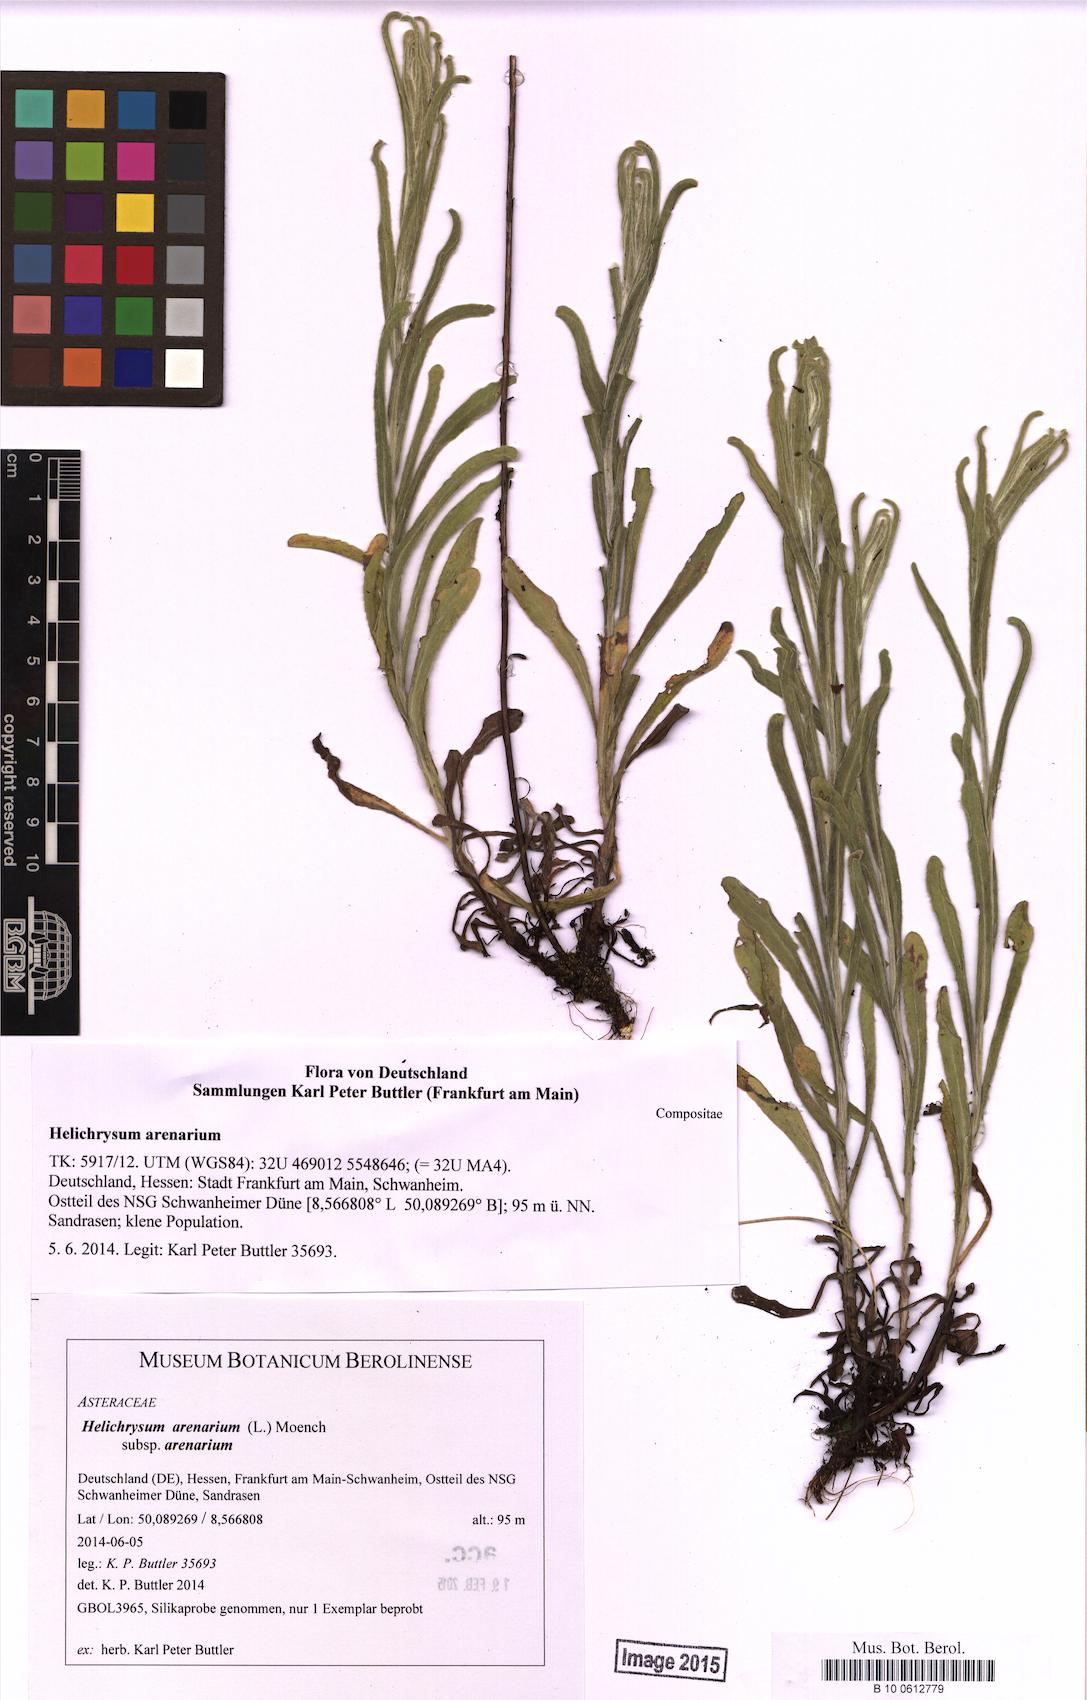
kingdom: Plantae
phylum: Tracheophyta
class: Magnoliopsida
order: Asterales
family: Asteraceae
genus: Helichrysum
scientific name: Helichrysum arenarium
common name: Strawflower
